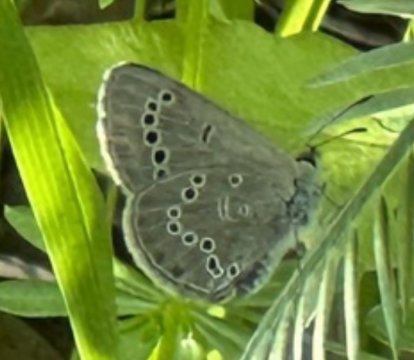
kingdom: Animalia
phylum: Arthropoda
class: Insecta
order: Lepidoptera
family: Lycaenidae
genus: Glaucopsyche
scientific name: Glaucopsyche lygdamus
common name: Silvery Blue
